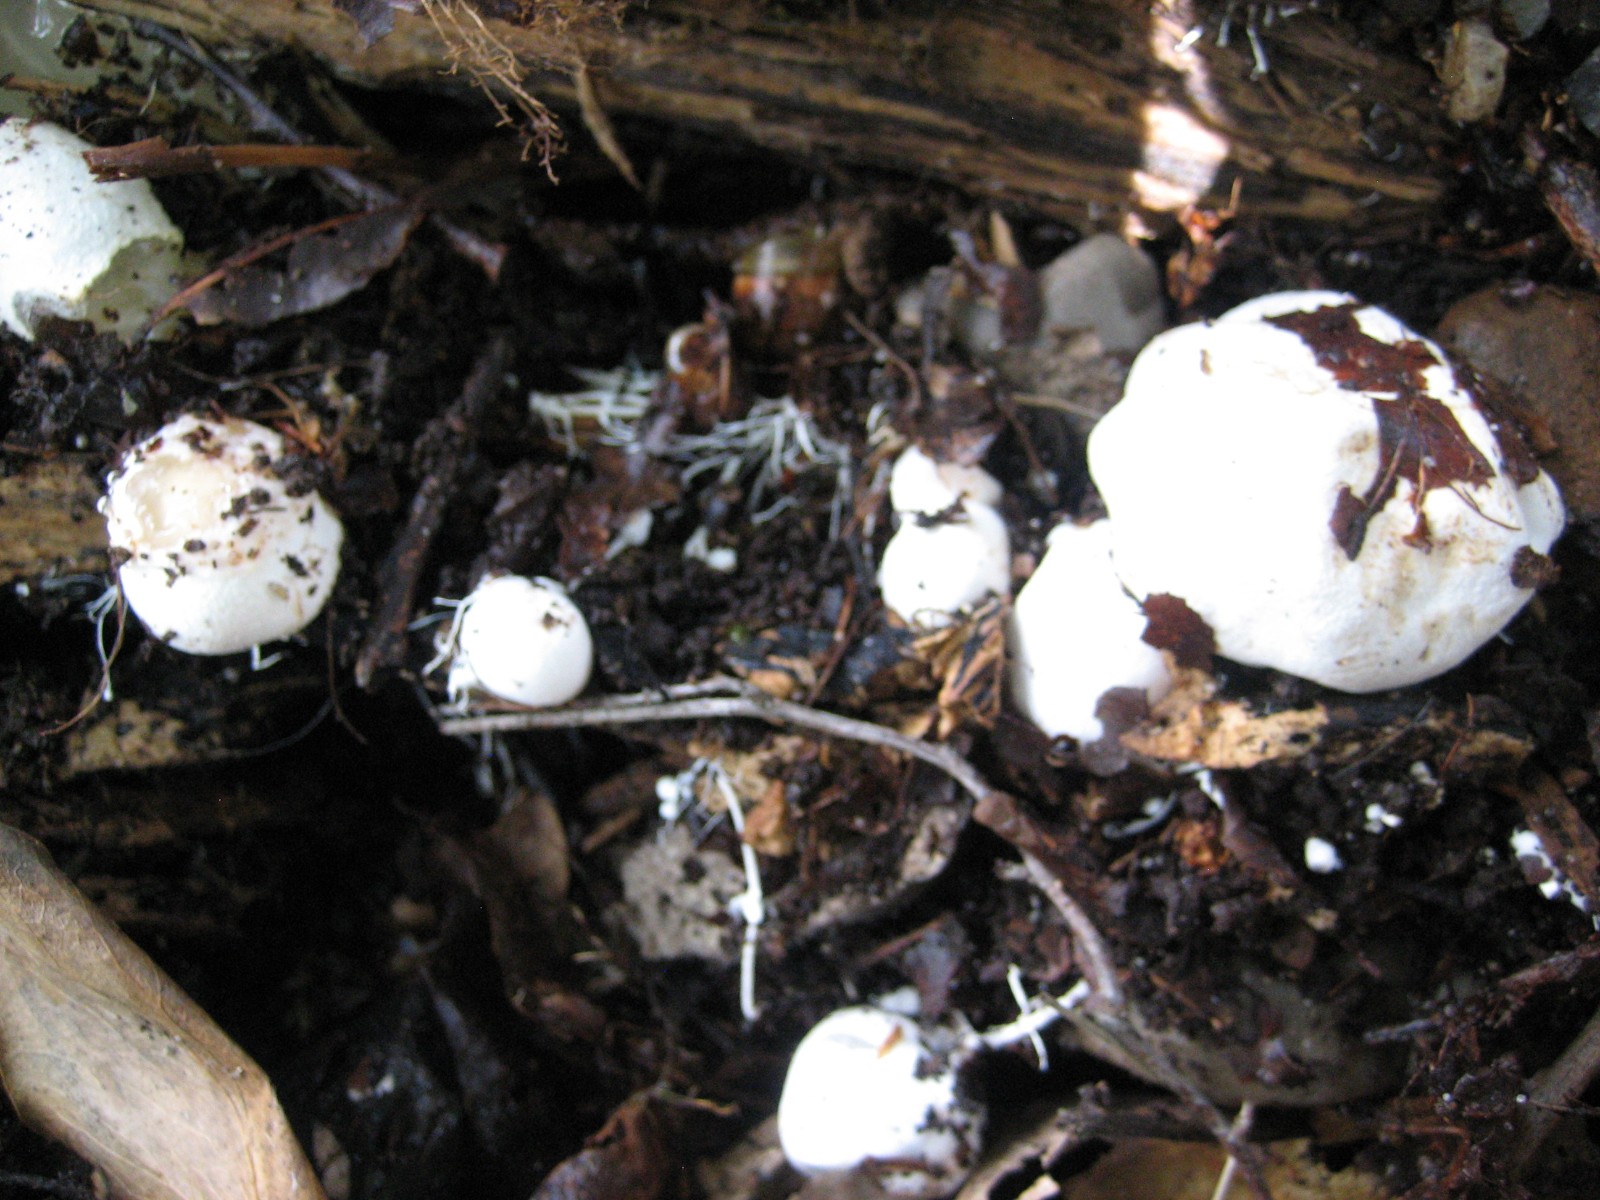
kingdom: Fungi
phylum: Basidiomycota
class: Agaricomycetes
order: Phallales
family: Phallaceae
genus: Phallus
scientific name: Phallus impudicus
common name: almindelig stinksvamp
